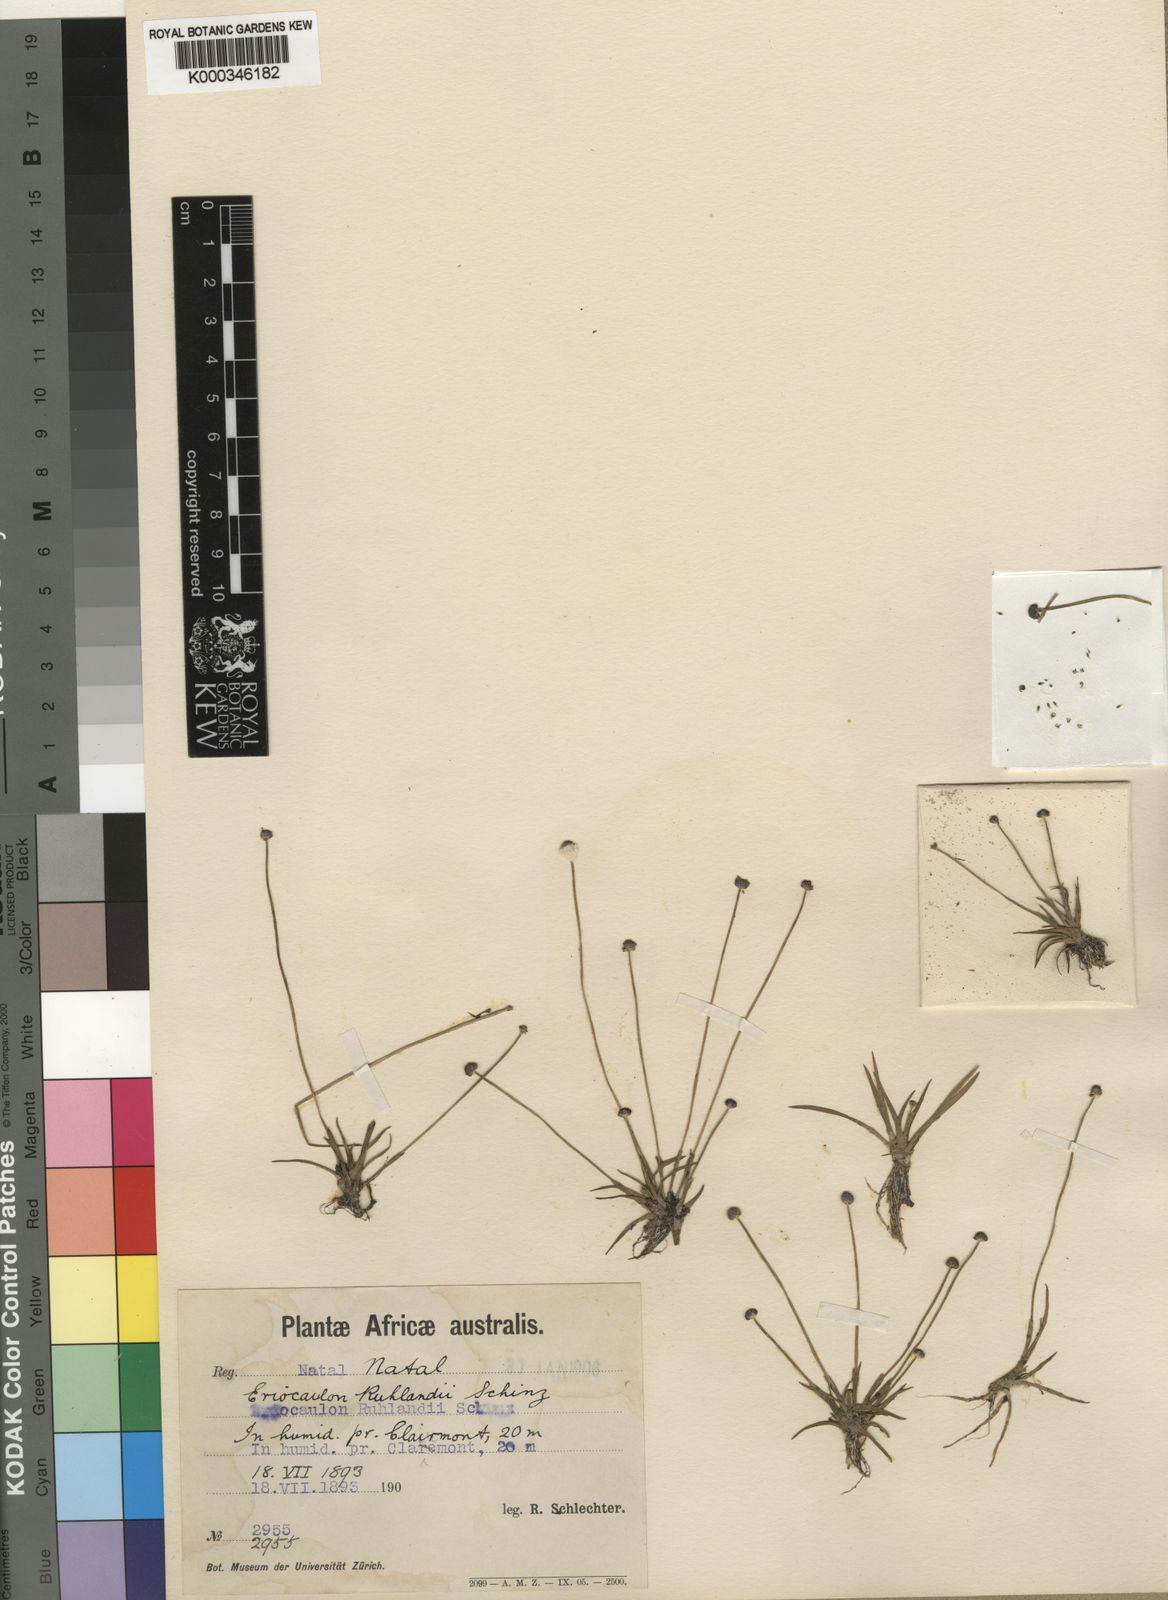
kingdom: Plantae
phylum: Tracheophyta
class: Liliopsida
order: Poales
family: Eriocaulaceae
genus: Eriocaulon
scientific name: Eriocaulon schlechteri
